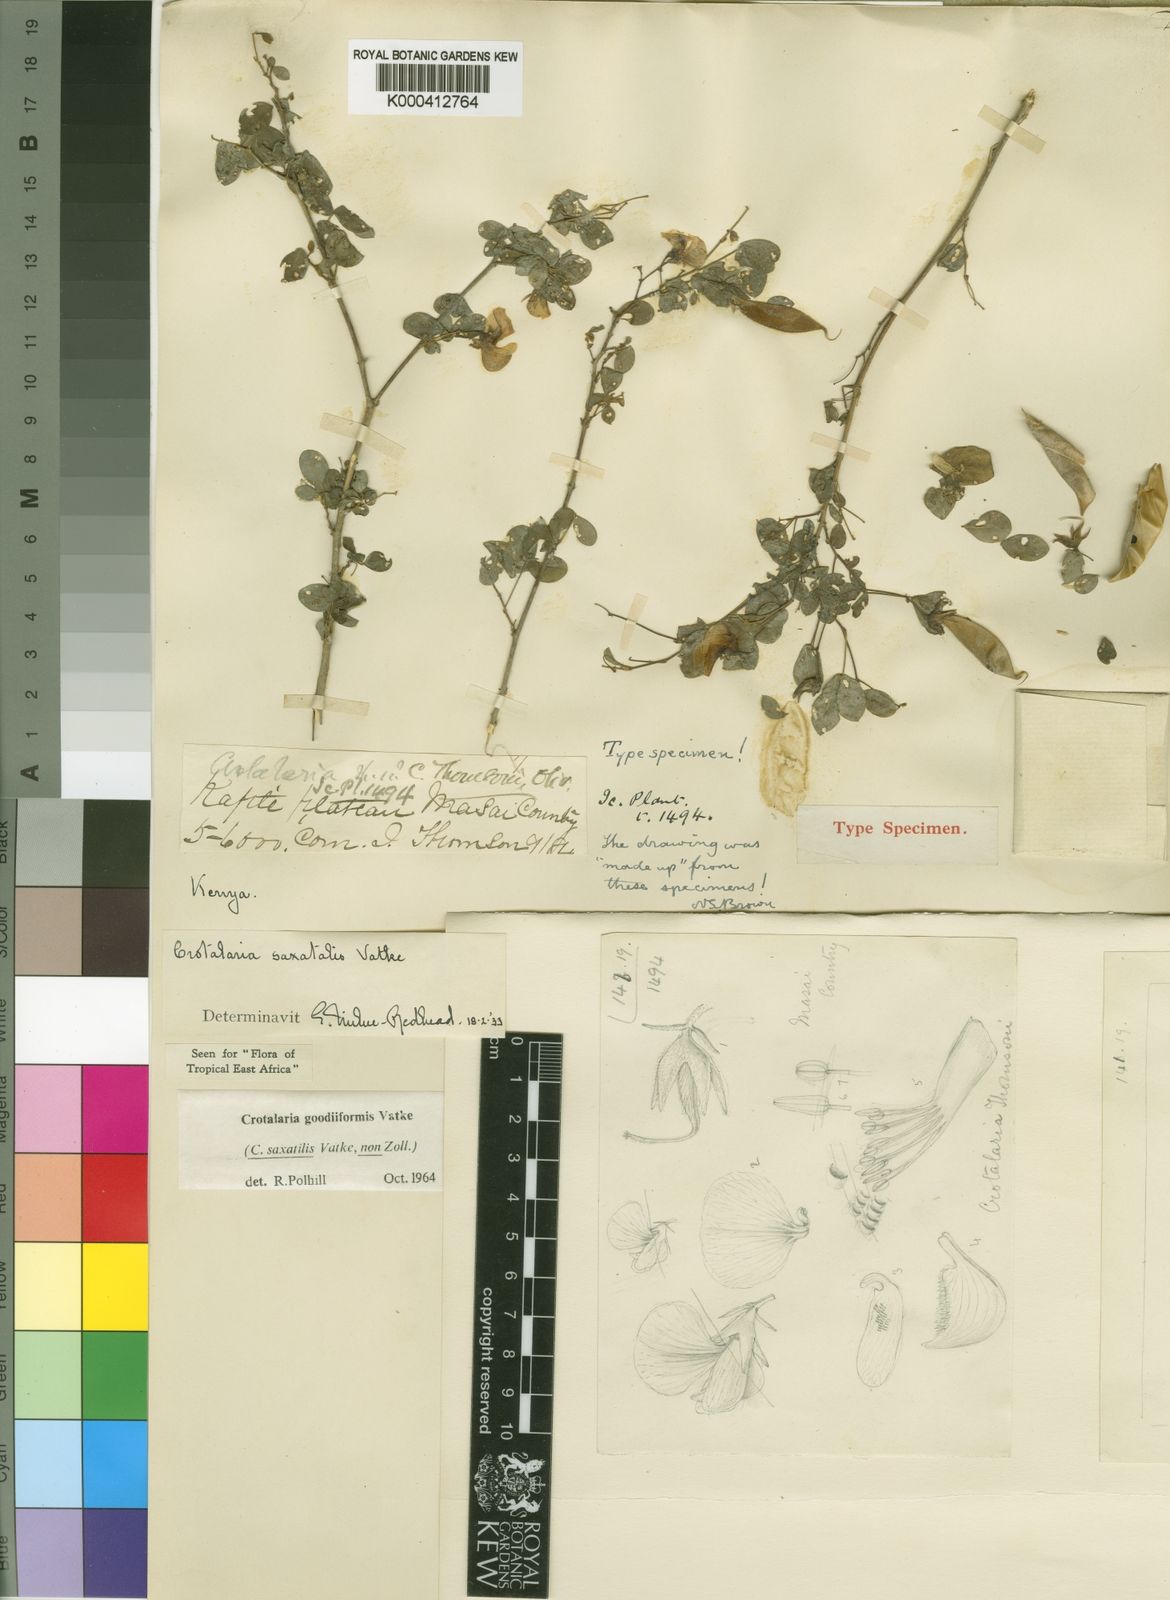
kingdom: Plantae
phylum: Tracheophyta
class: Magnoliopsida
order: Fabales
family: Fabaceae
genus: Crotalaria
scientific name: Crotalaria goodiiformis
